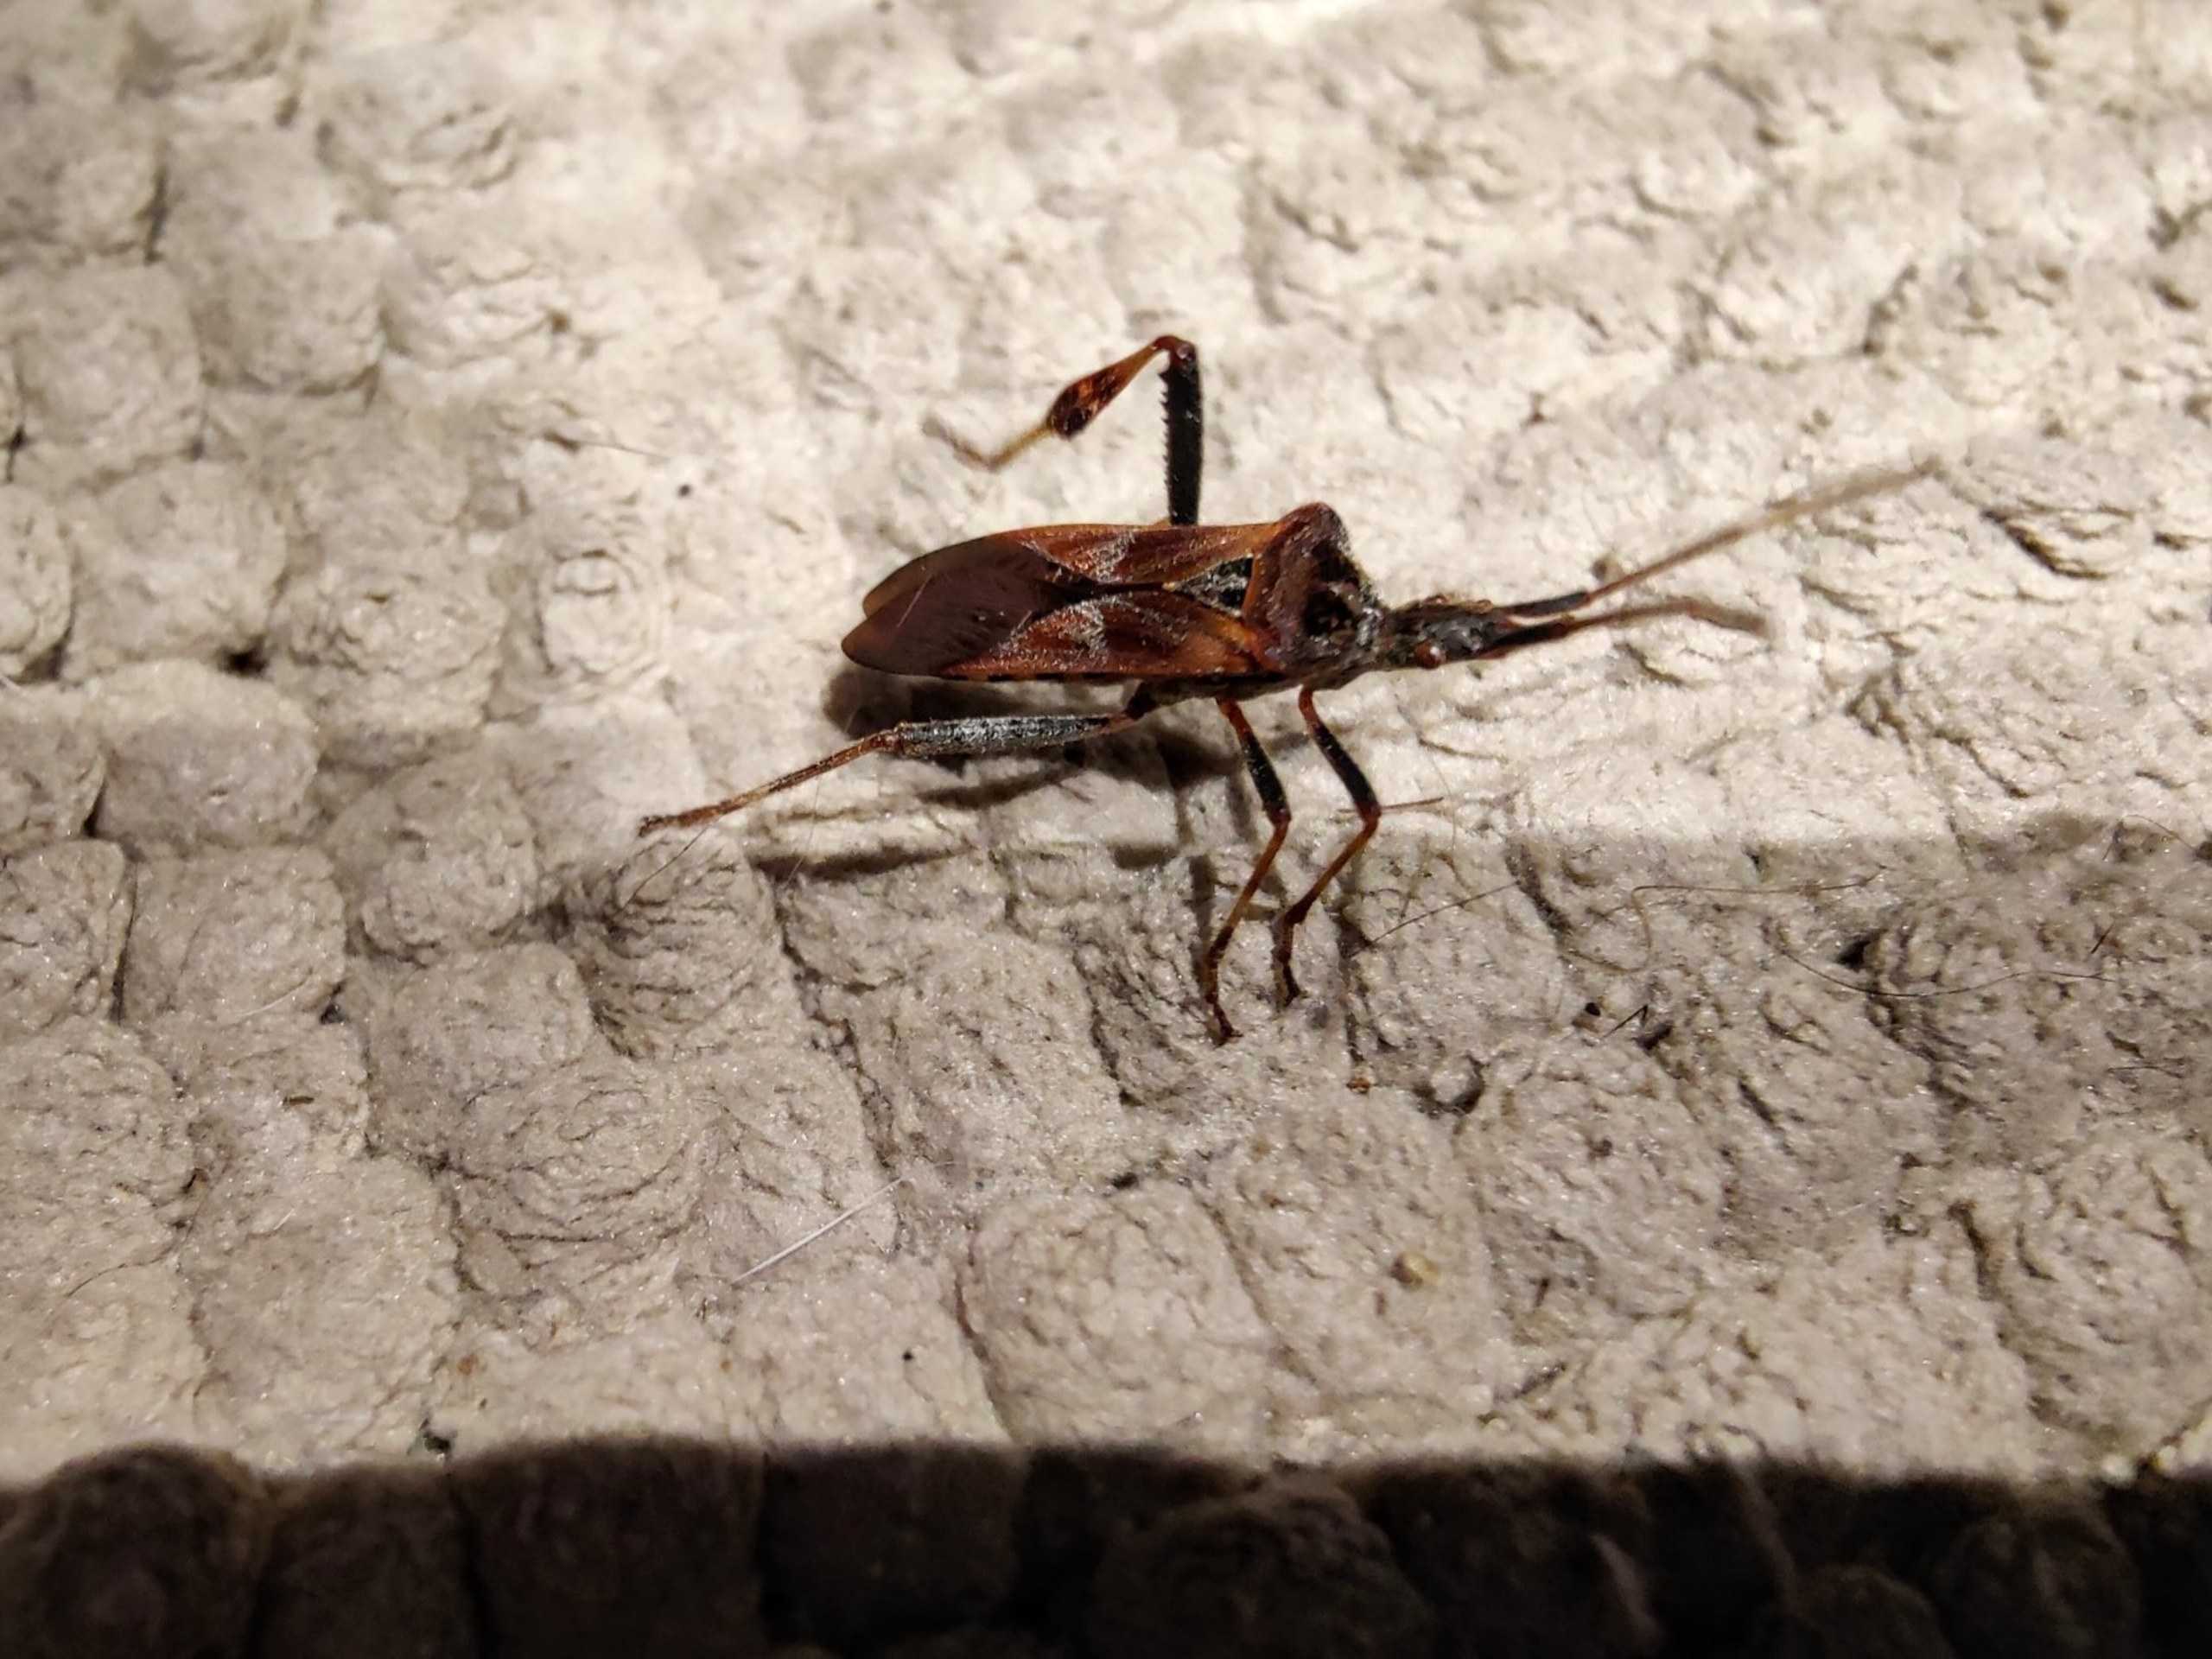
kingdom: Animalia
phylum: Arthropoda
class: Insecta
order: Hemiptera
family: Coreidae
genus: Leptoglossus
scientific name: Leptoglossus occidentalis
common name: Amerikansk fyrretæge
